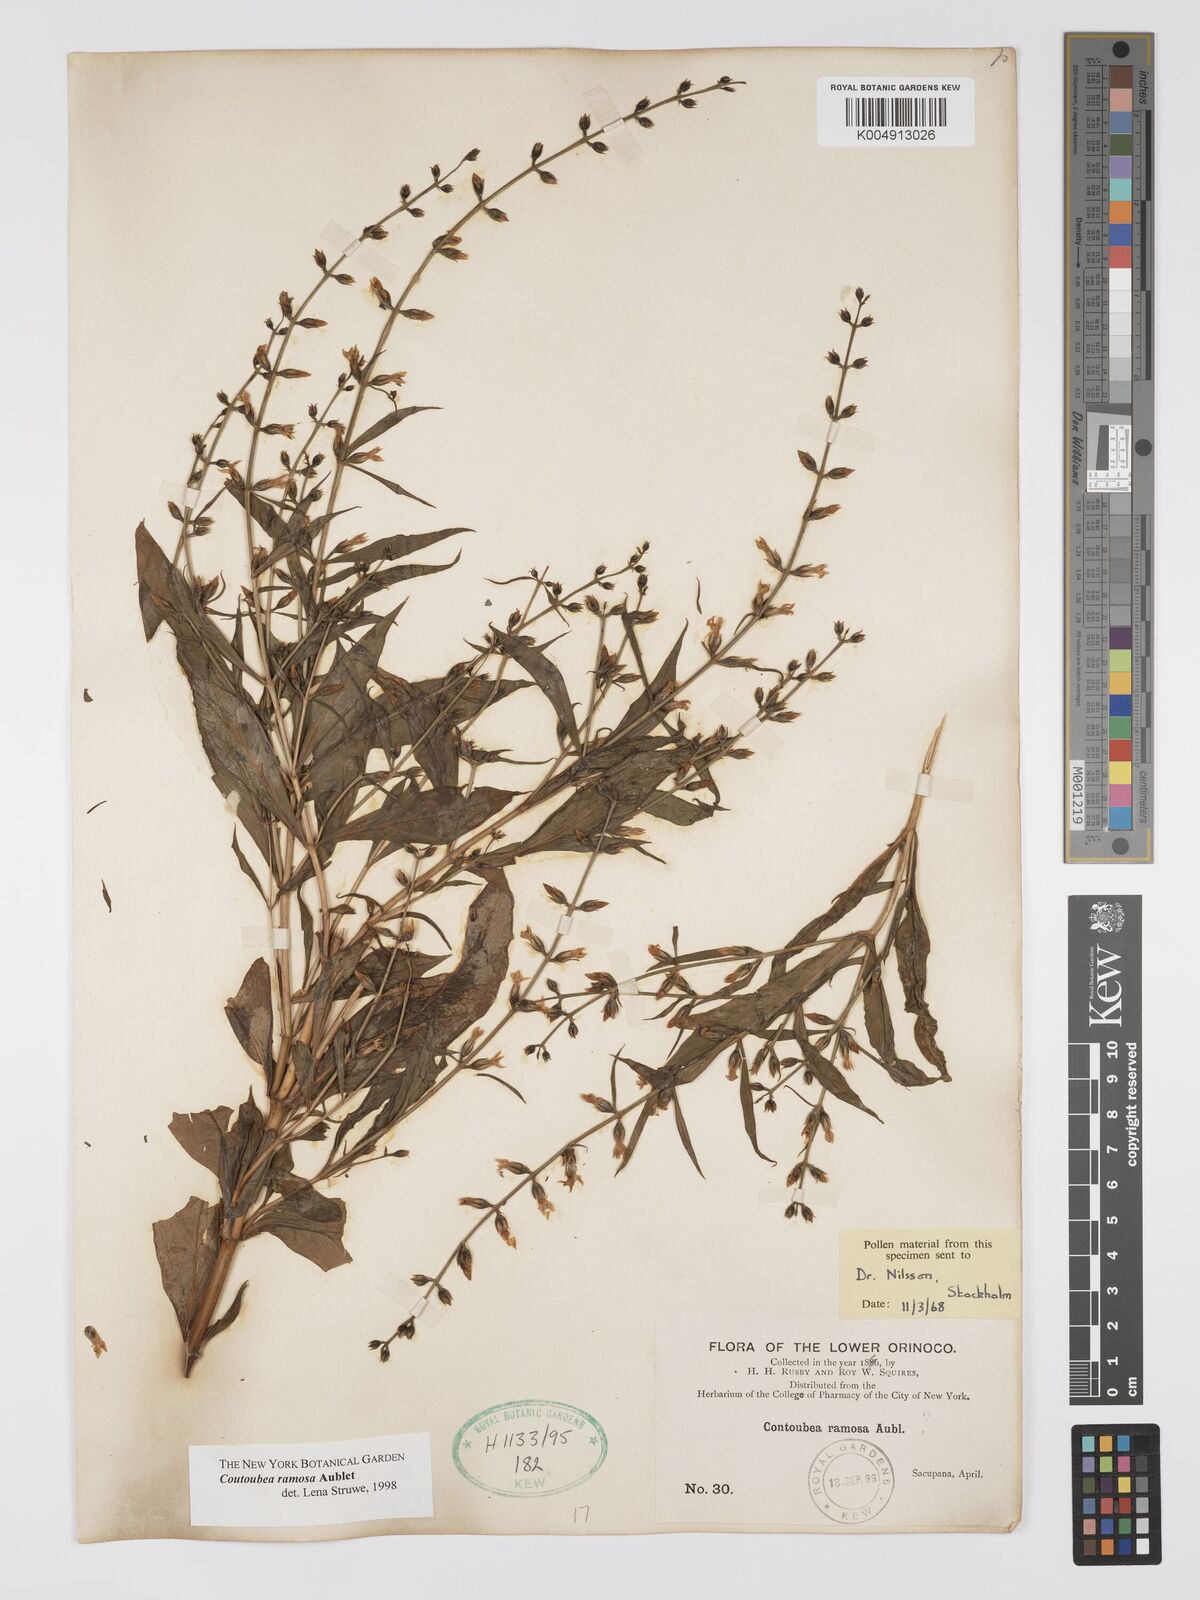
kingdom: Plantae
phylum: Tracheophyta
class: Magnoliopsida
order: Gentianales
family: Gentianaceae
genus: Coutoubea
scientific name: Coutoubea ramosa
